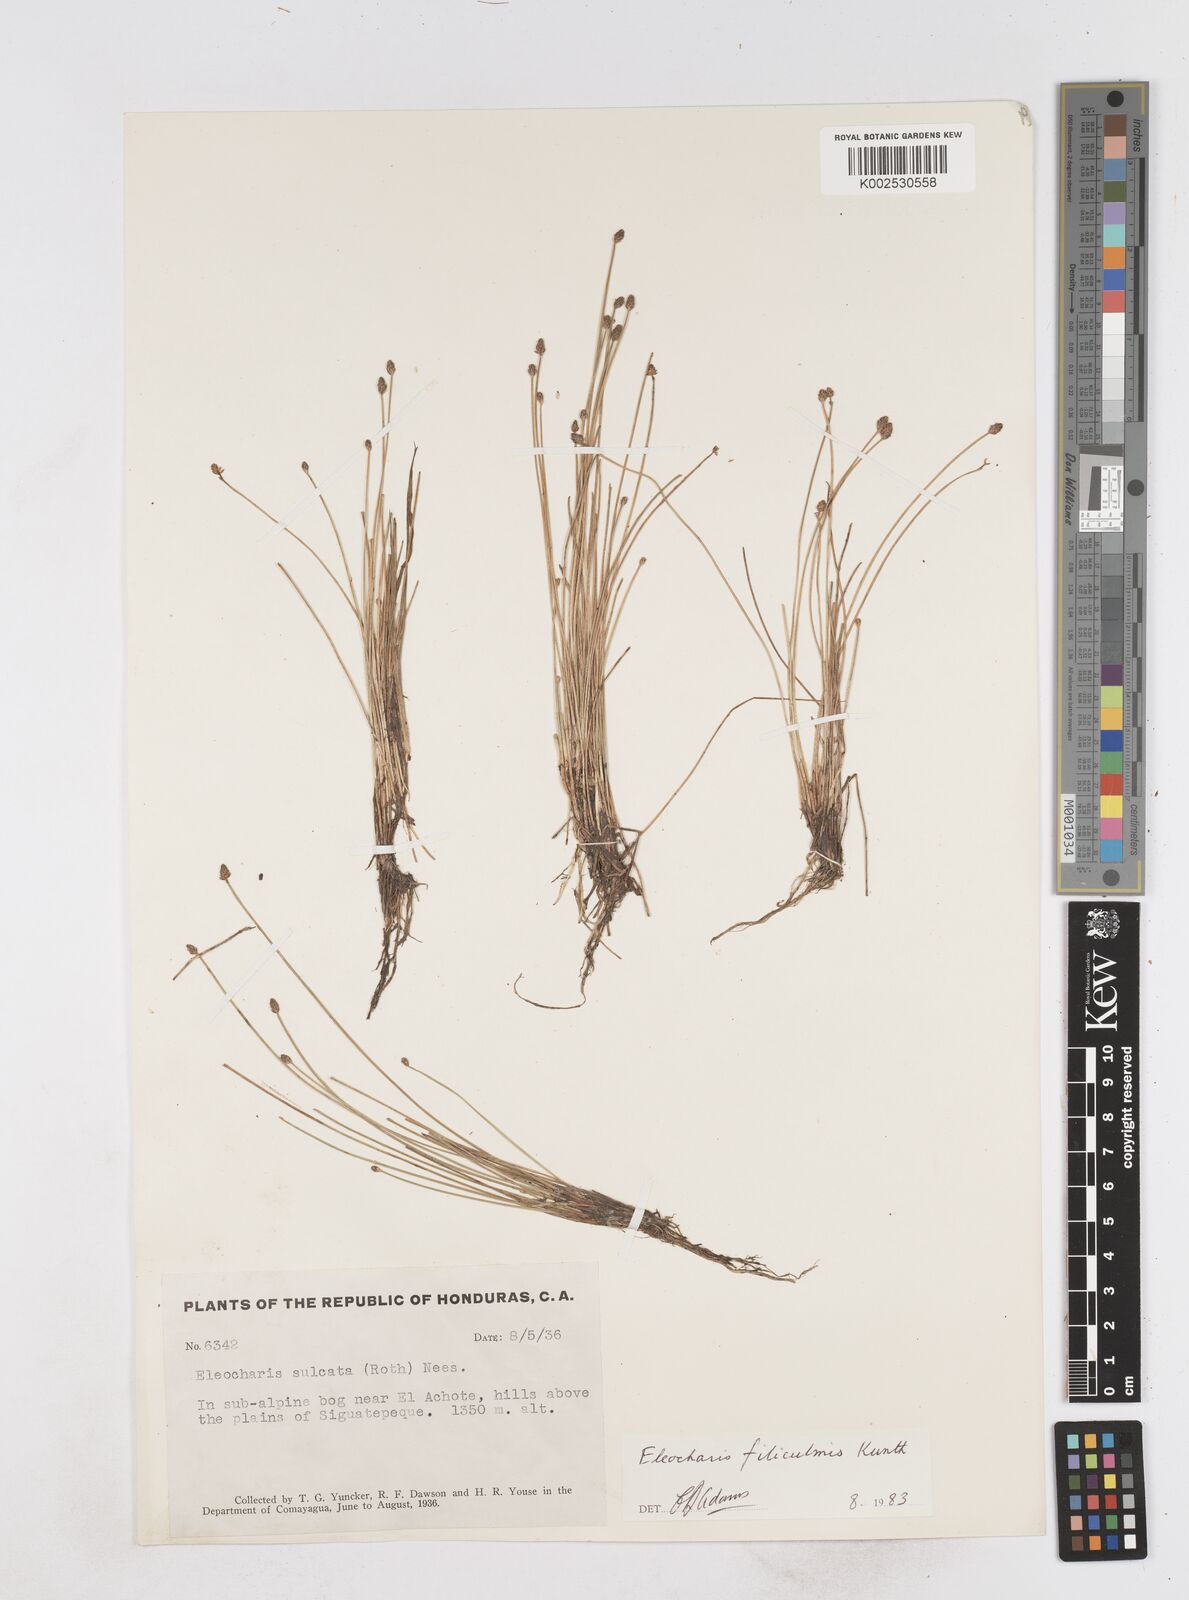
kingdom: Plantae
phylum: Tracheophyta
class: Liliopsida
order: Poales
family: Cyperaceae
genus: Eleocharis
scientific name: Eleocharis filiculmis
